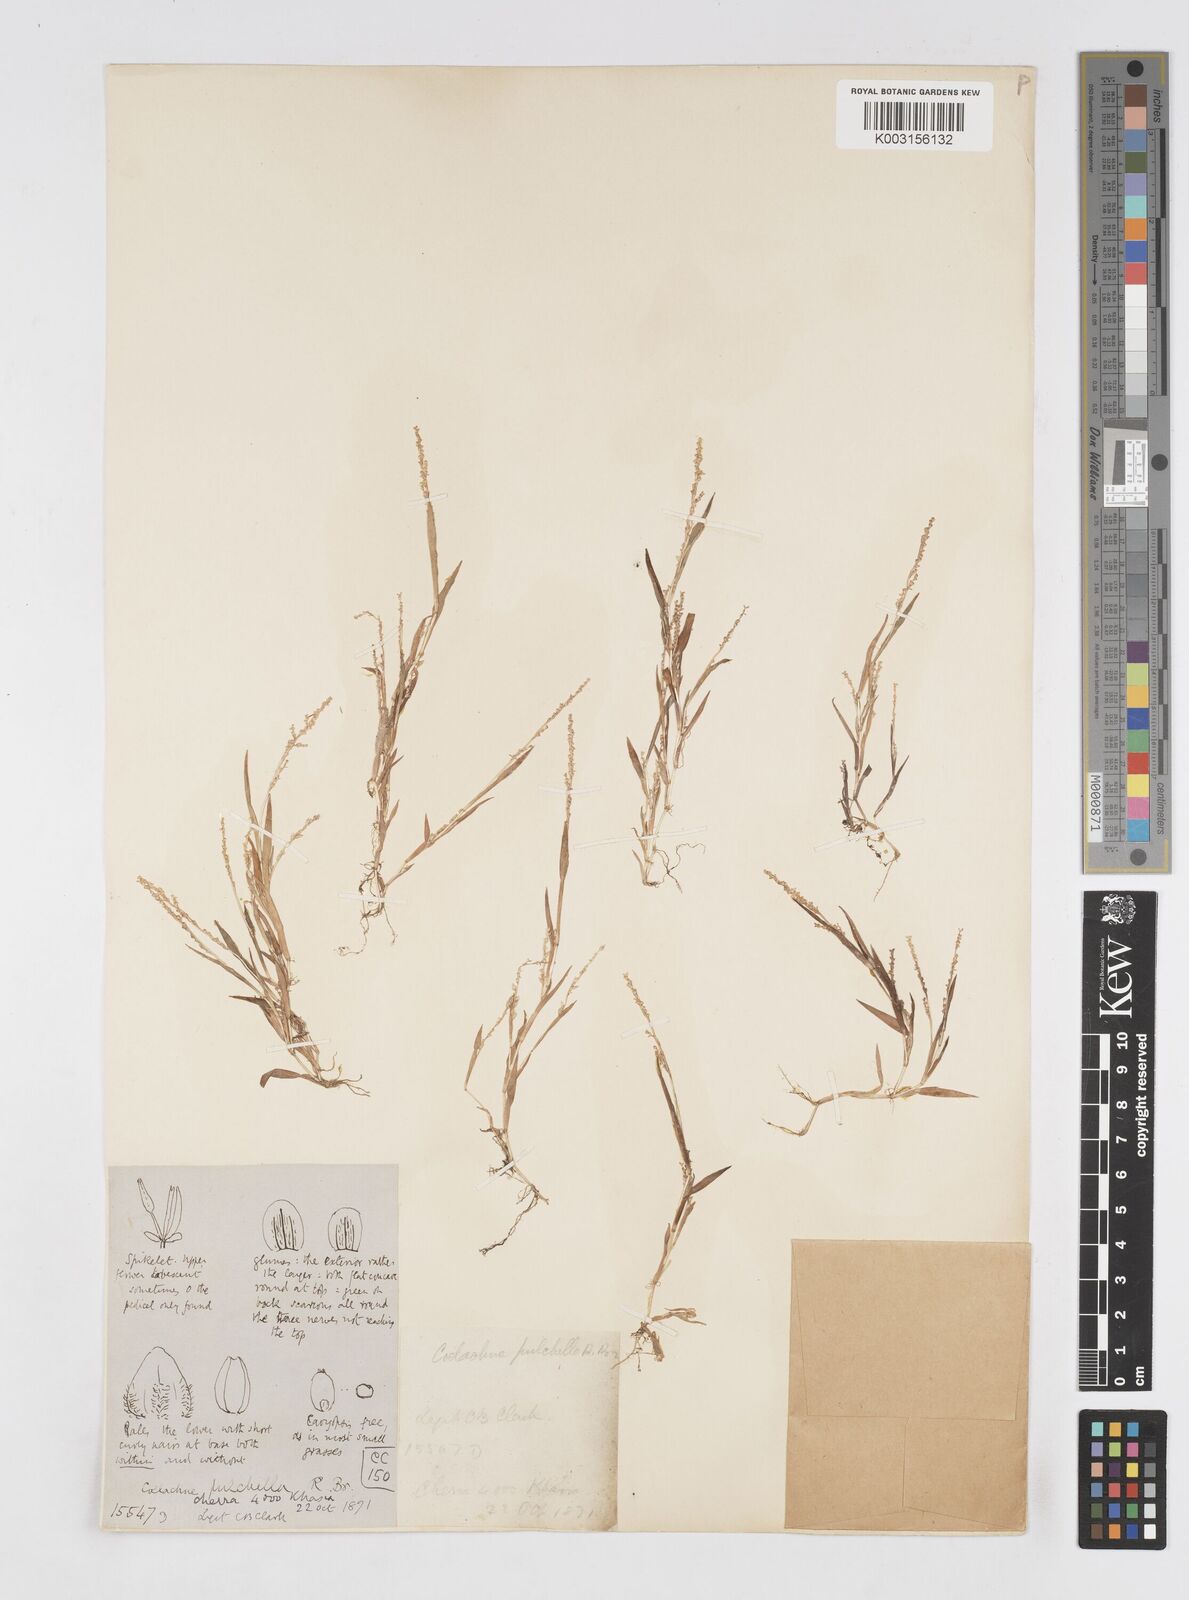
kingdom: Plantae
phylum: Tracheophyta
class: Liliopsida
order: Poales
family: Poaceae
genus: Coelachne
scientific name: Coelachne simpliciuscula
